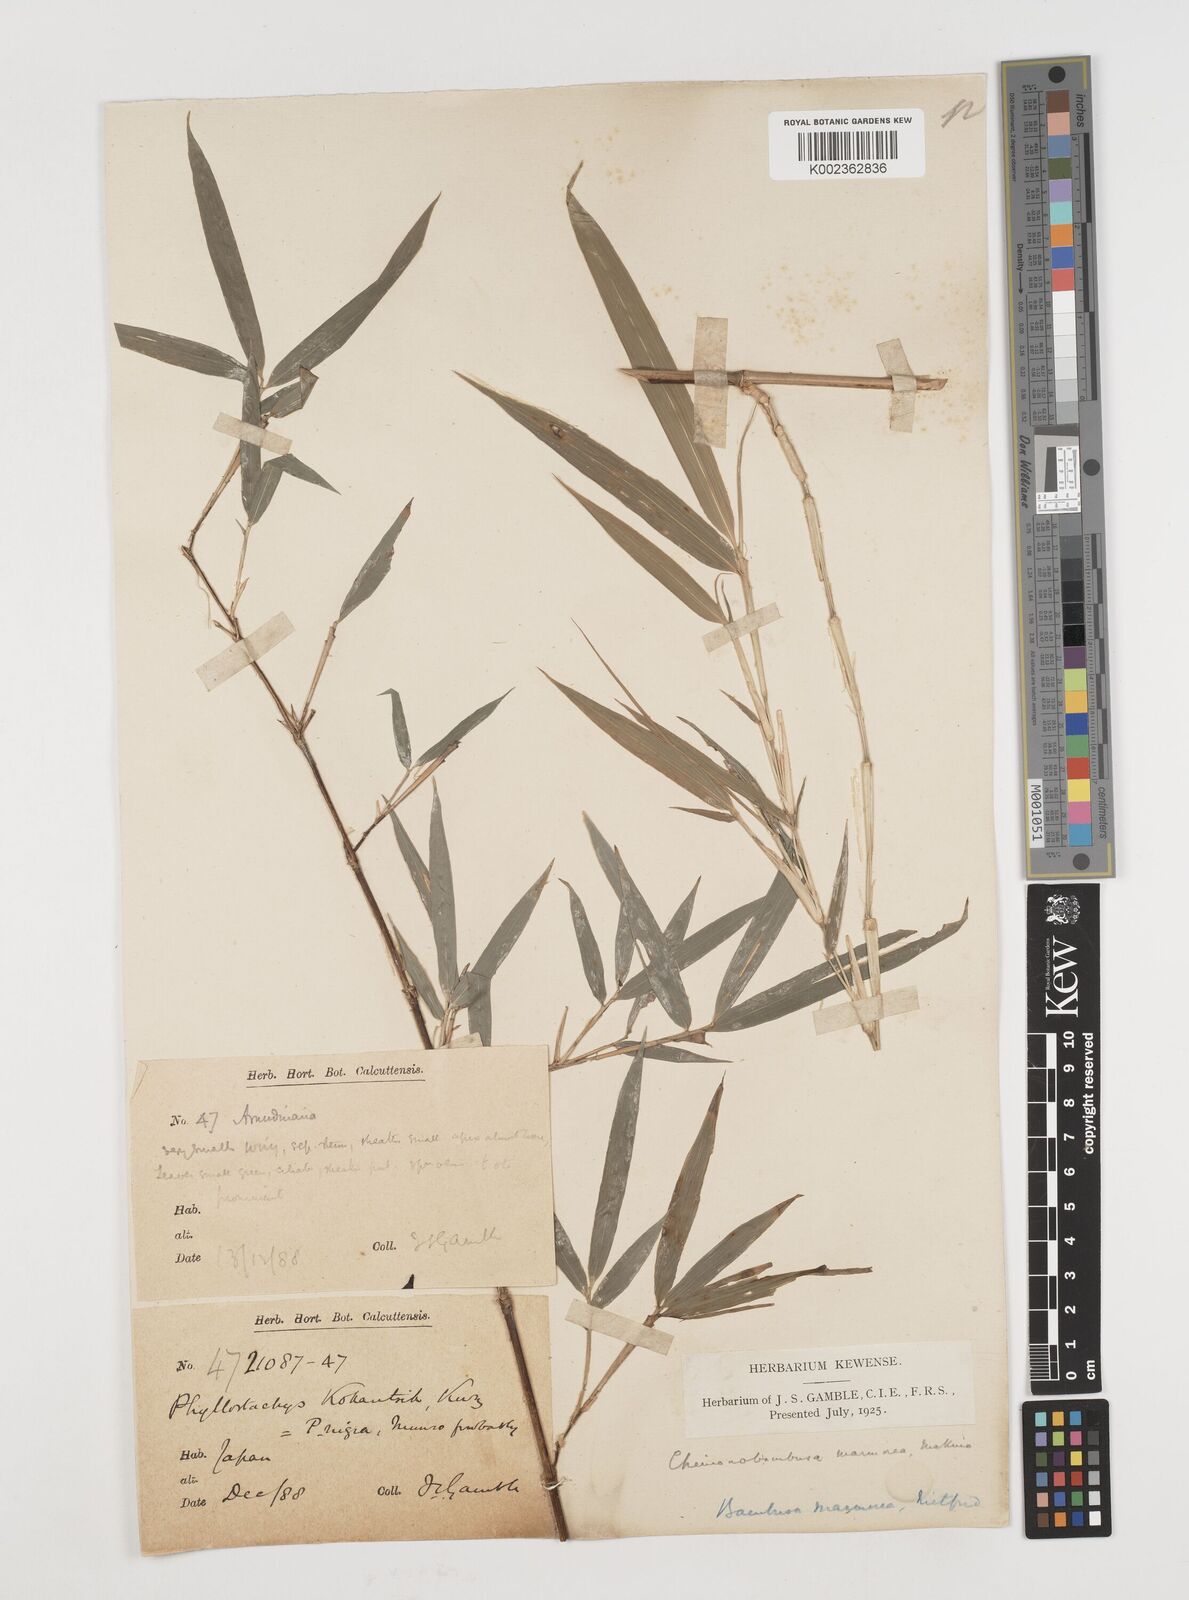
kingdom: Plantae
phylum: Tracheophyta
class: Liliopsida
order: Poales
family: Poaceae
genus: Chimonobambusa
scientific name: Chimonobambusa marmorea
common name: Marbled bamboo
